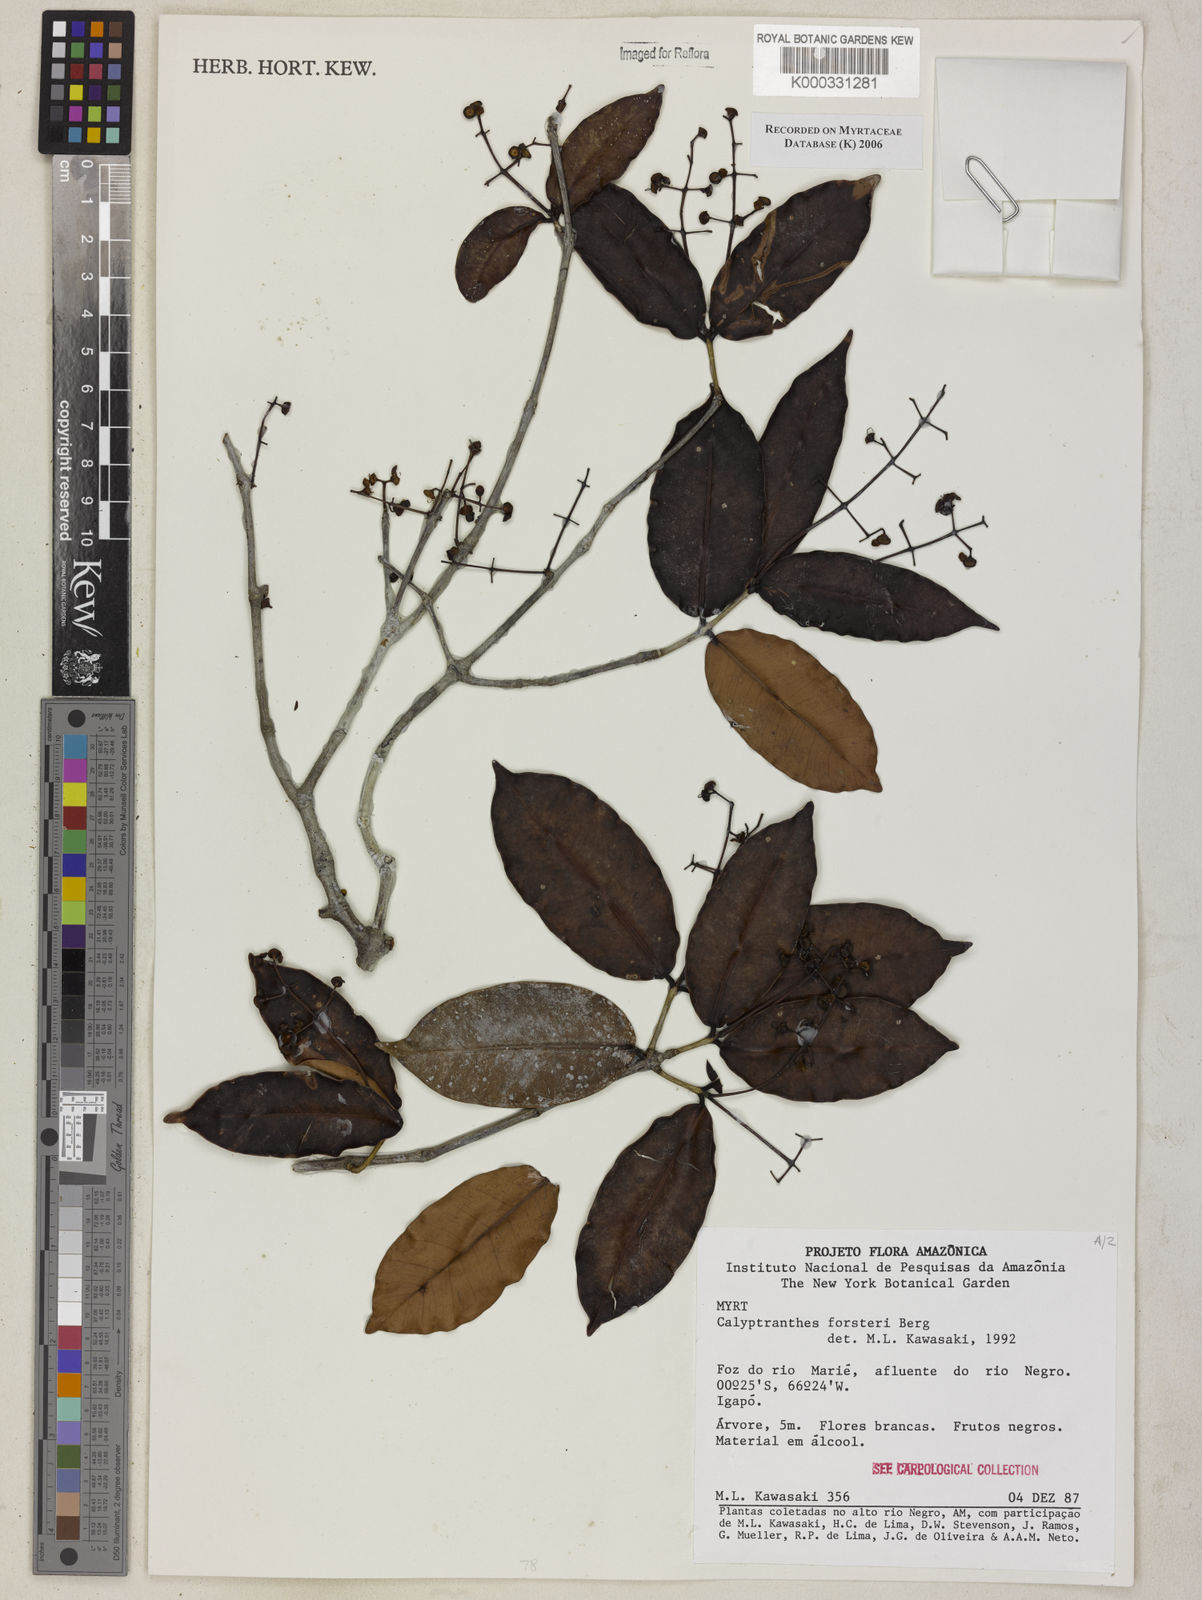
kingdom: Plantae
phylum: Tracheophyta
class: Magnoliopsida
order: Myrtales
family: Myrtaceae
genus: Myrcia
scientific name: Myrcia forsteri
